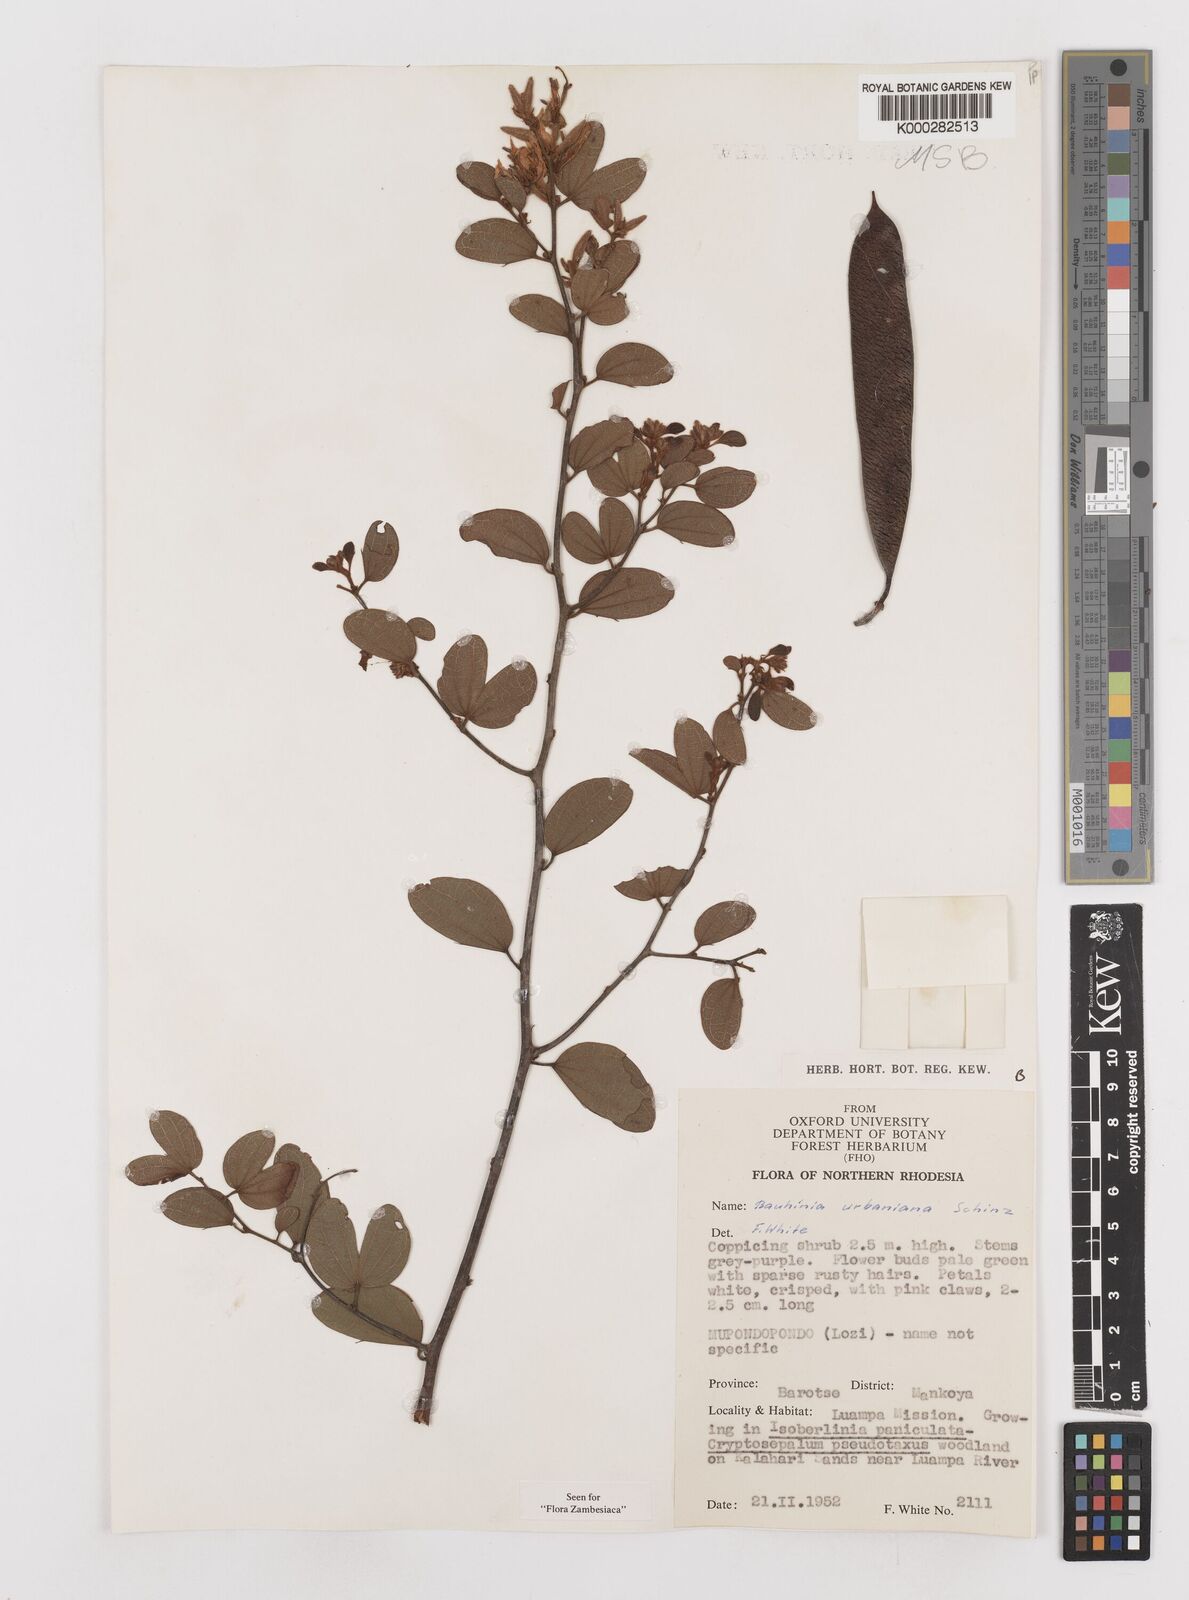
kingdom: Plantae
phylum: Tracheophyta
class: Magnoliopsida
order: Fabales
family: Fabaceae
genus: Bauhinia
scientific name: Bauhinia urbaniana
